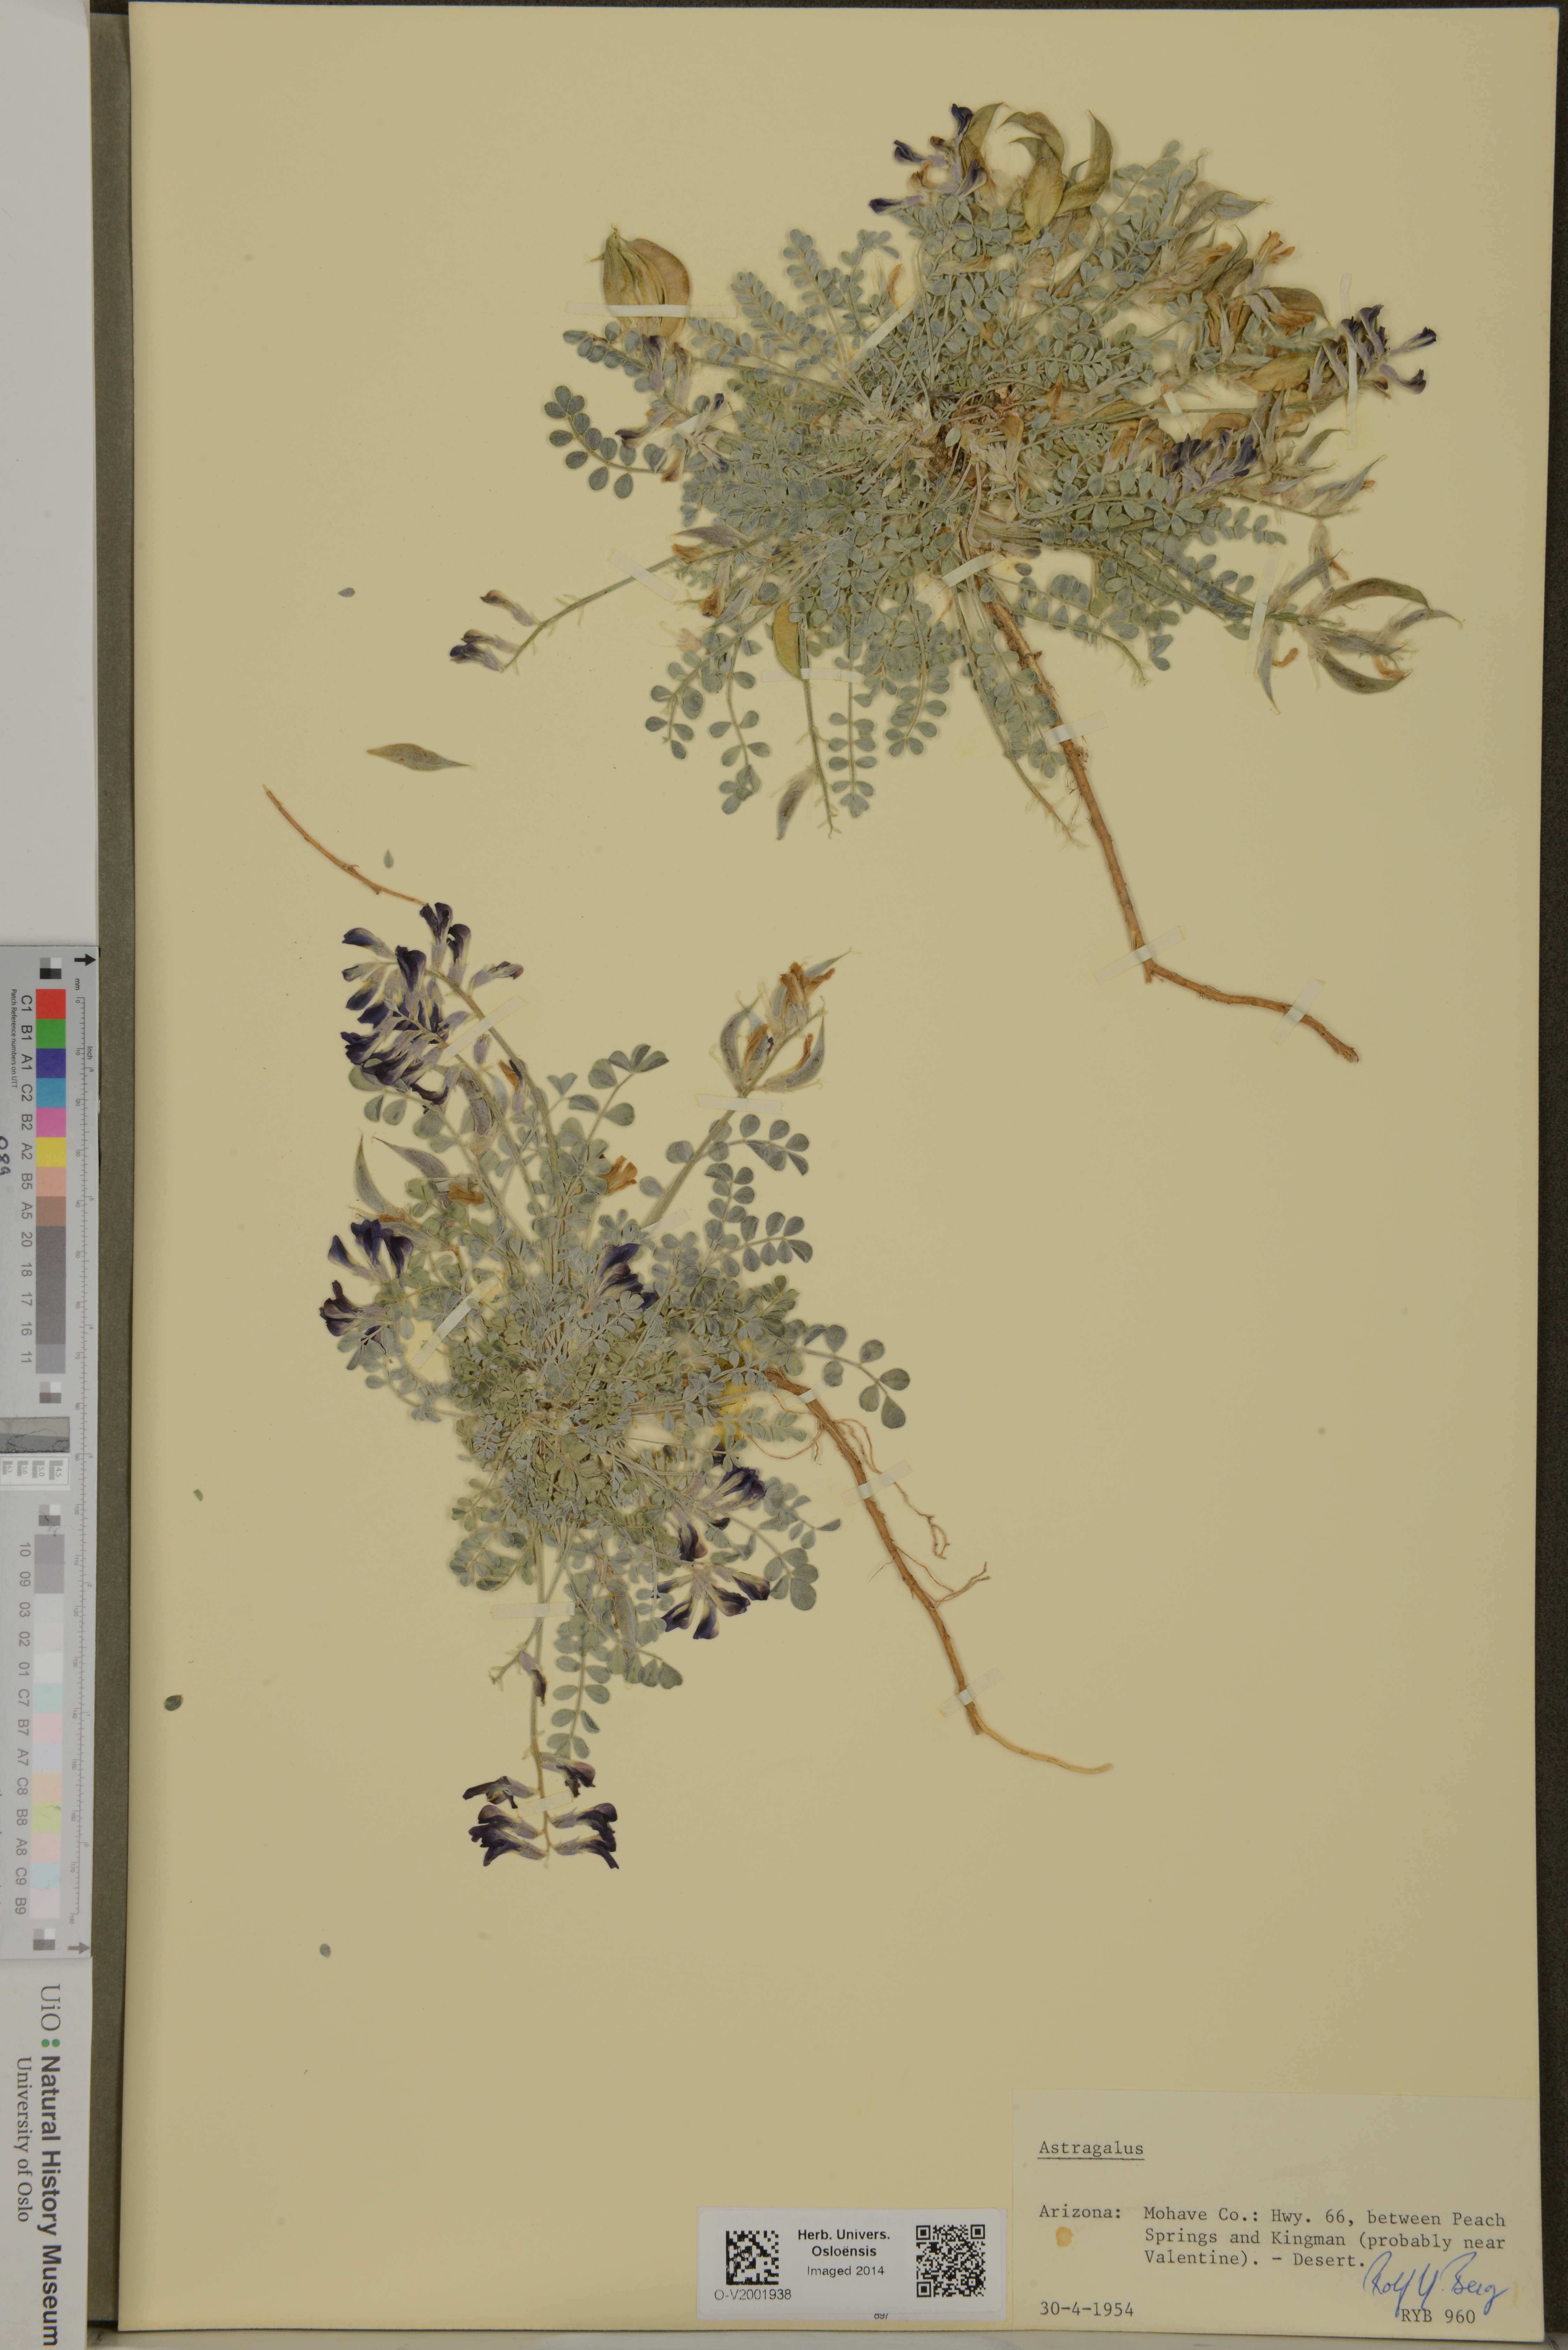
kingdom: Plantae
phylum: Tracheophyta
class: Magnoliopsida
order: Fabales
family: Fabaceae
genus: Astragalus
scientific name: Astragalus
